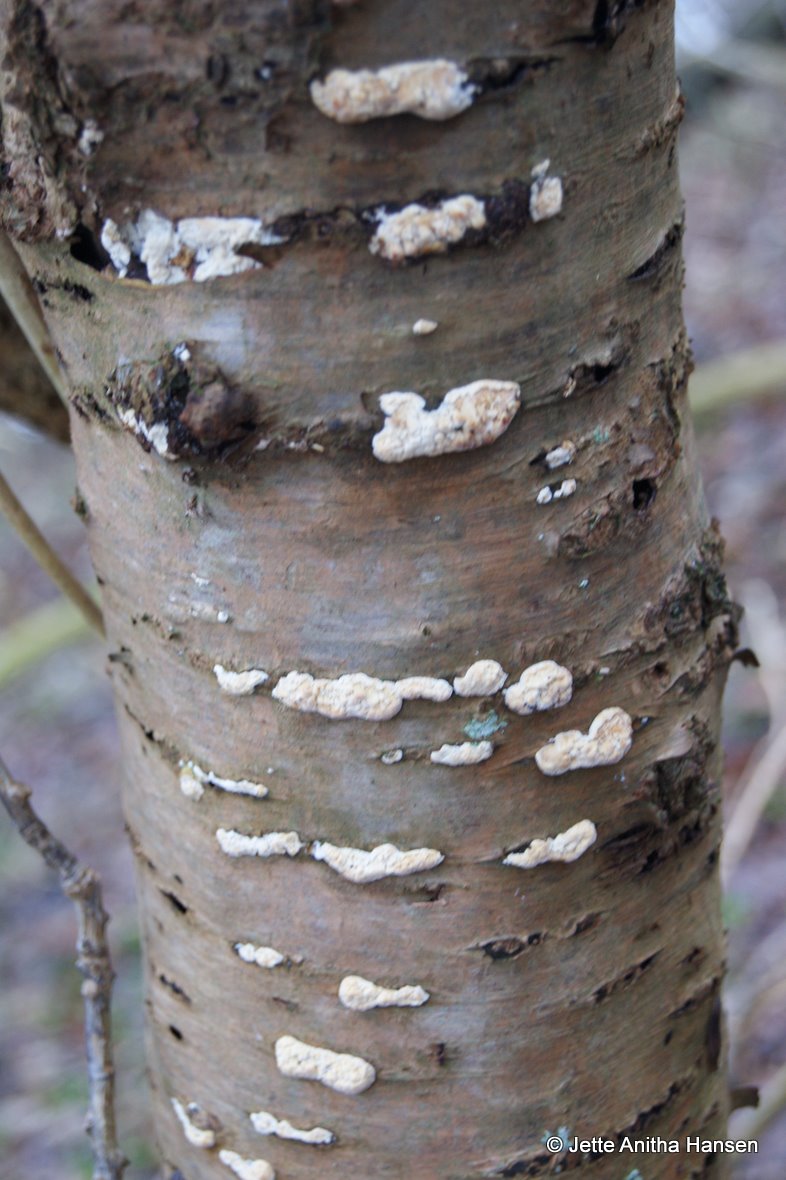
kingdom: Fungi
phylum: Basidiomycota
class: Agaricomycetes
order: Hymenochaetales
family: Schizoporaceae
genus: Xylodon
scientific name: Xylodon radula
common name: grovtandet kalkskind
